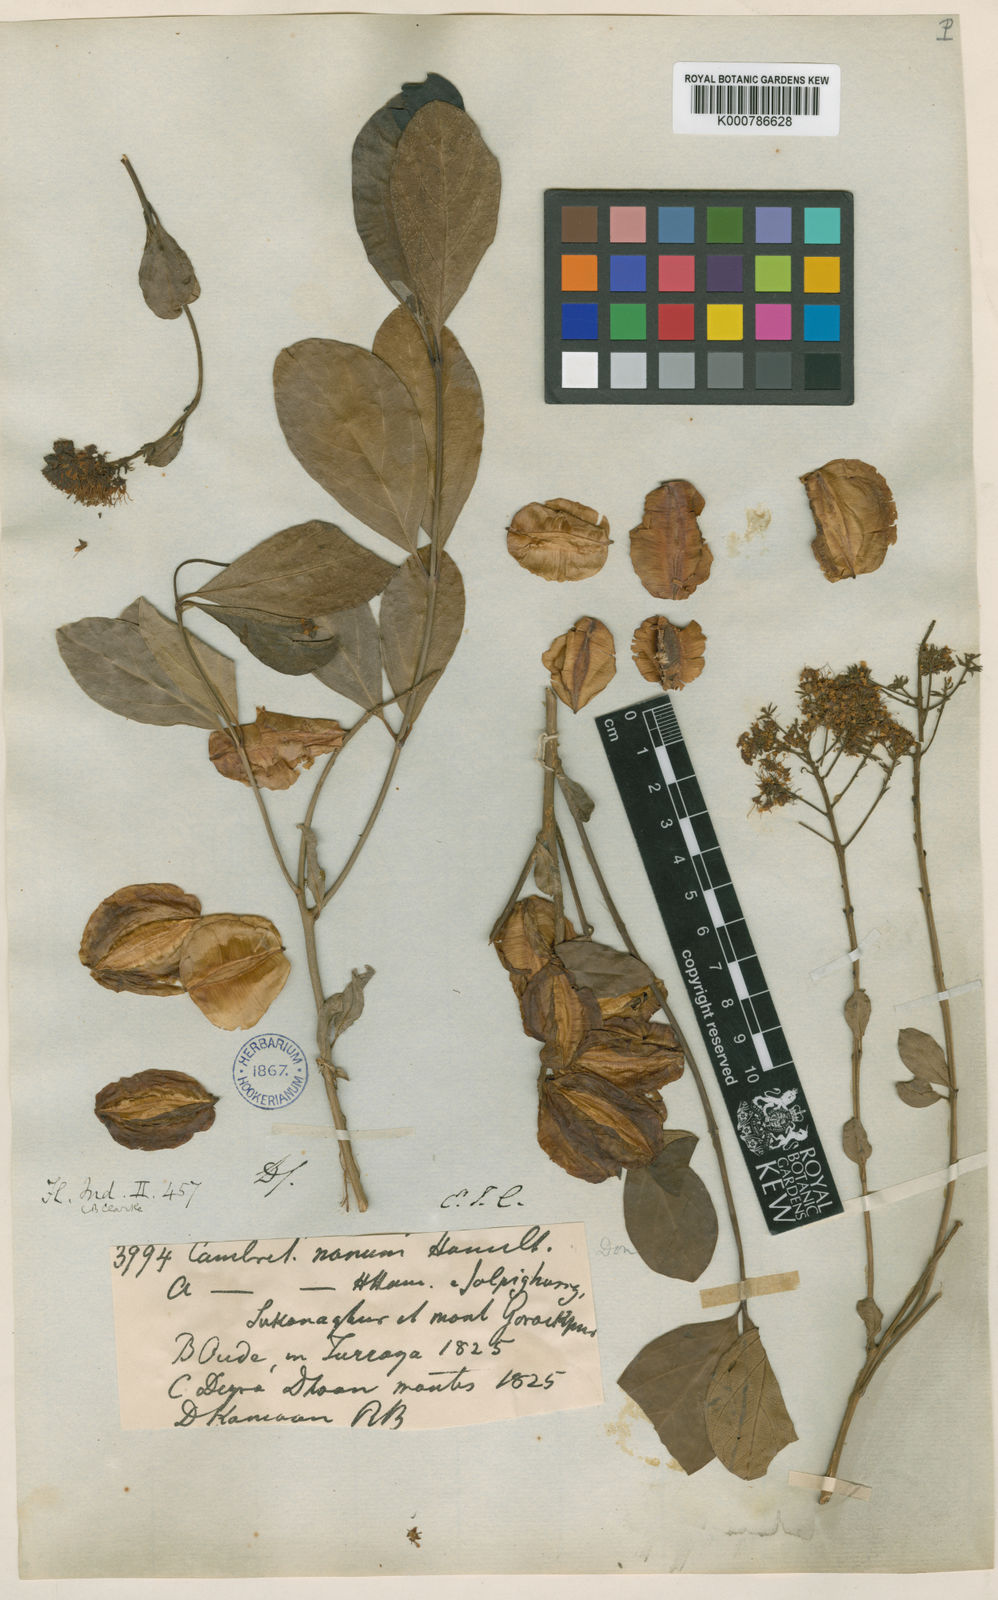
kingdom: Plantae
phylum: Tracheophyta
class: Magnoliopsida
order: Myrtales
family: Combretaceae
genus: Combretum
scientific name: Combretum
